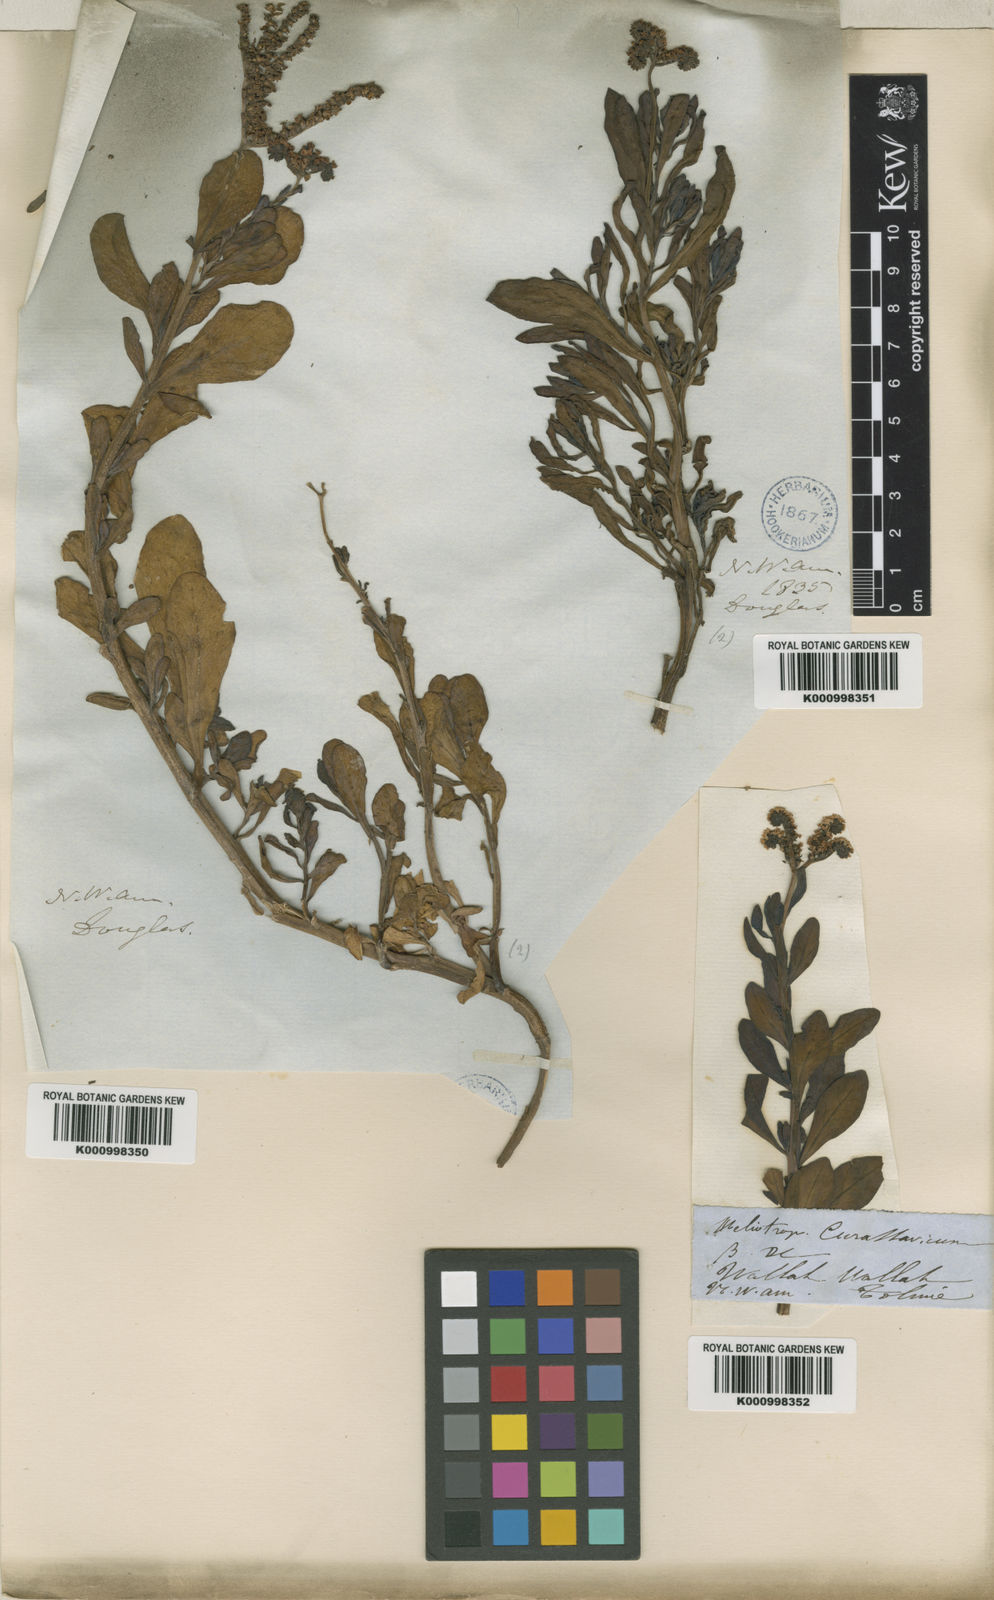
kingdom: Plantae
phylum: Tracheophyta
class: Magnoliopsida
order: Boraginales
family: Heliotropiaceae
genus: Heliotropium
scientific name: Heliotropium
